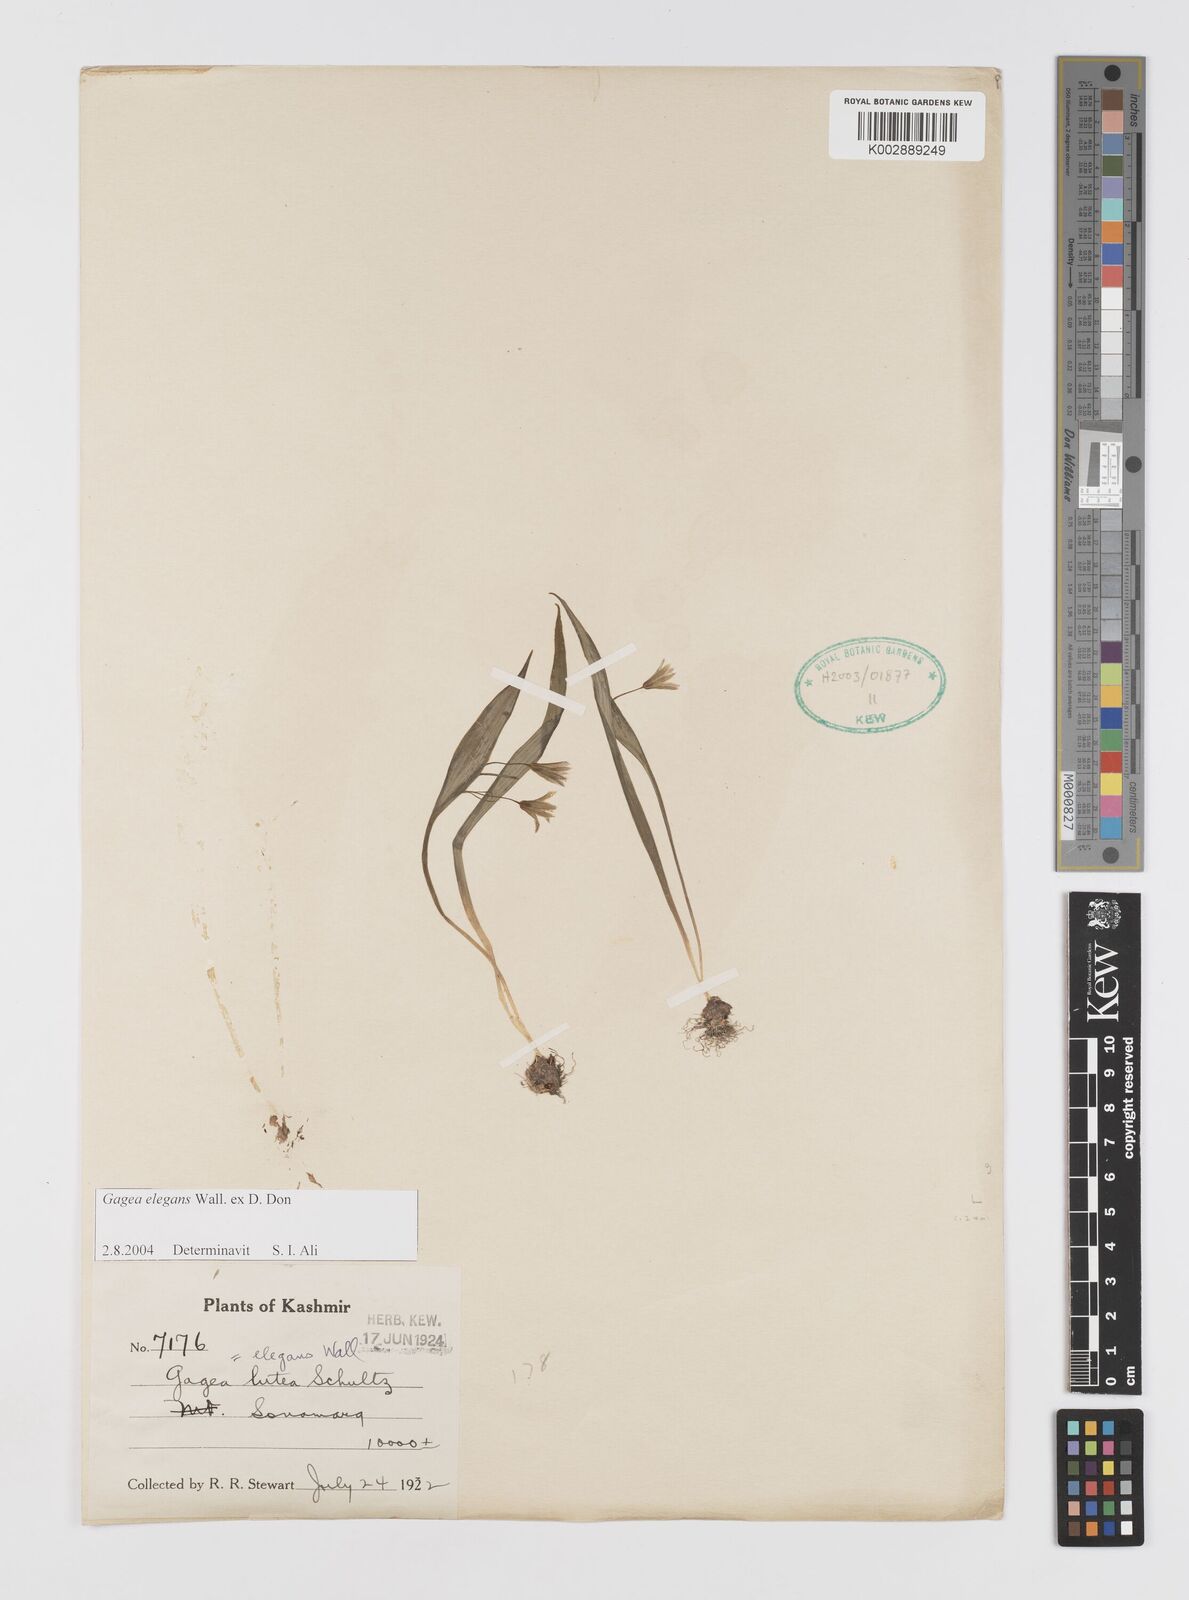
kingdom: Plantae
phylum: Tracheophyta
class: Liliopsida
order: Liliales
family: Liliaceae
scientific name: Liliaceae
